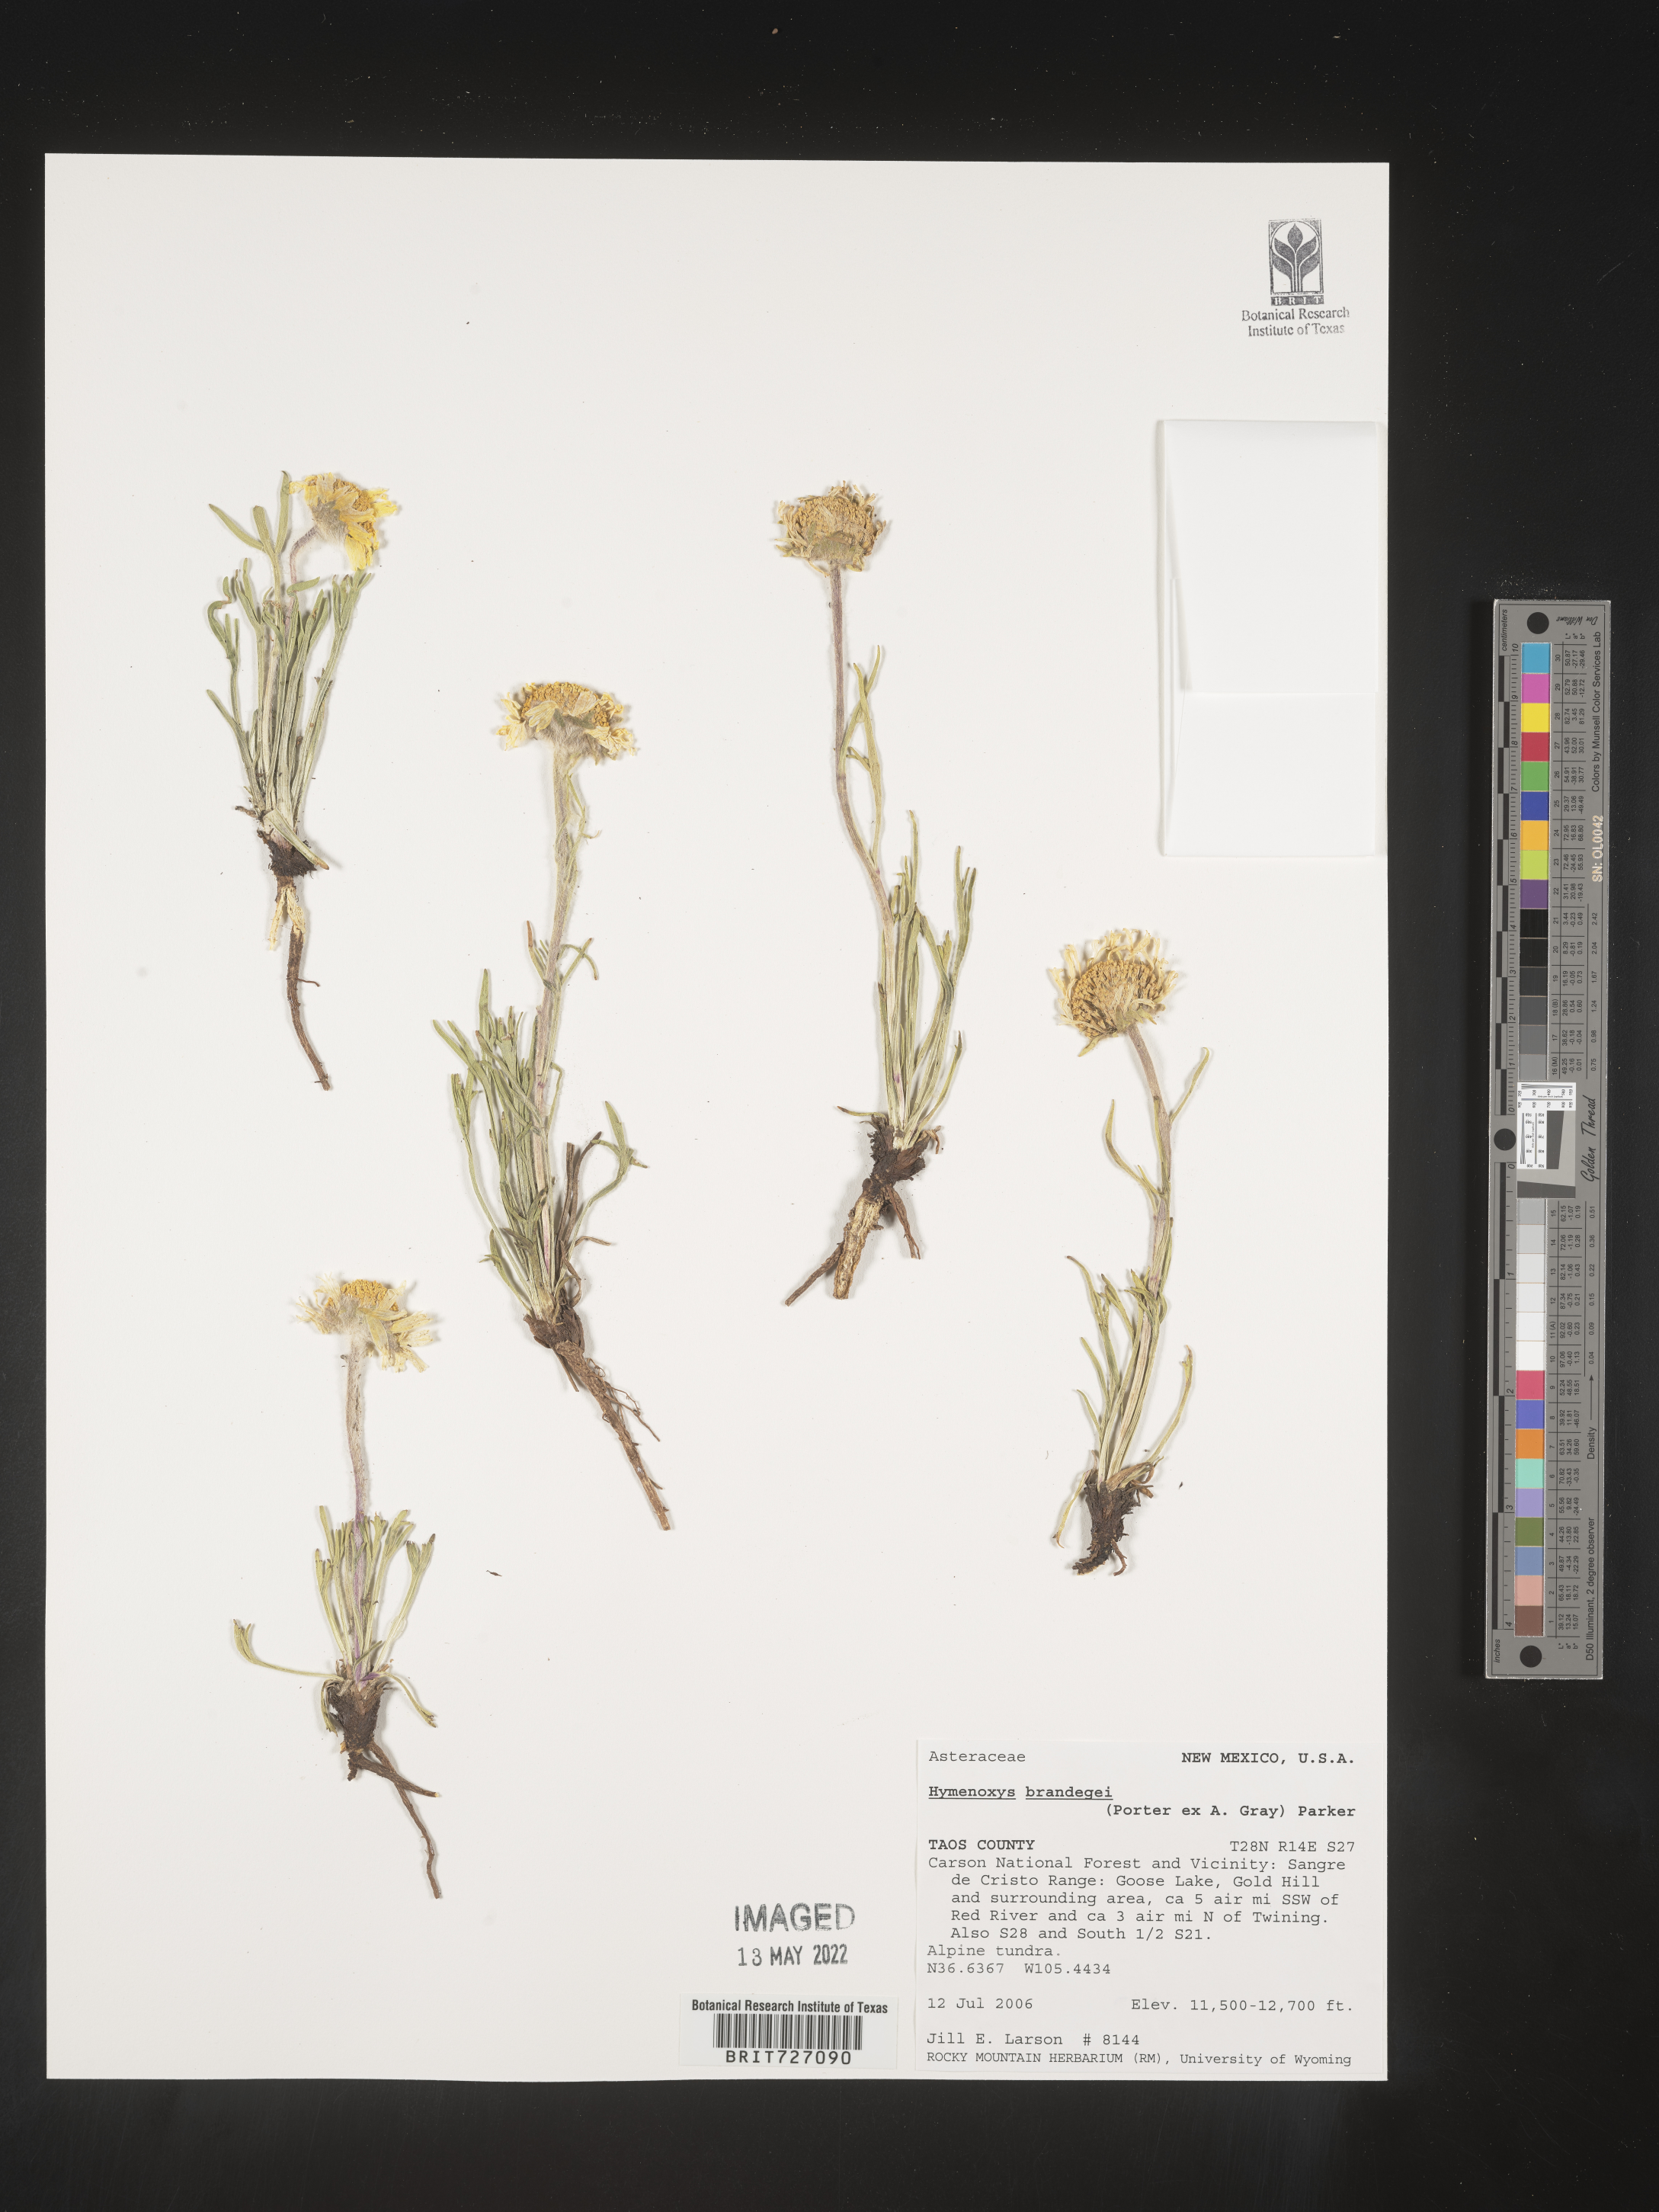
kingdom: Plantae
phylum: Tracheophyta
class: Magnoliopsida
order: Asterales
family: Asteraceae
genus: Hymenoxys
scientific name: Hymenoxys brandegeei
